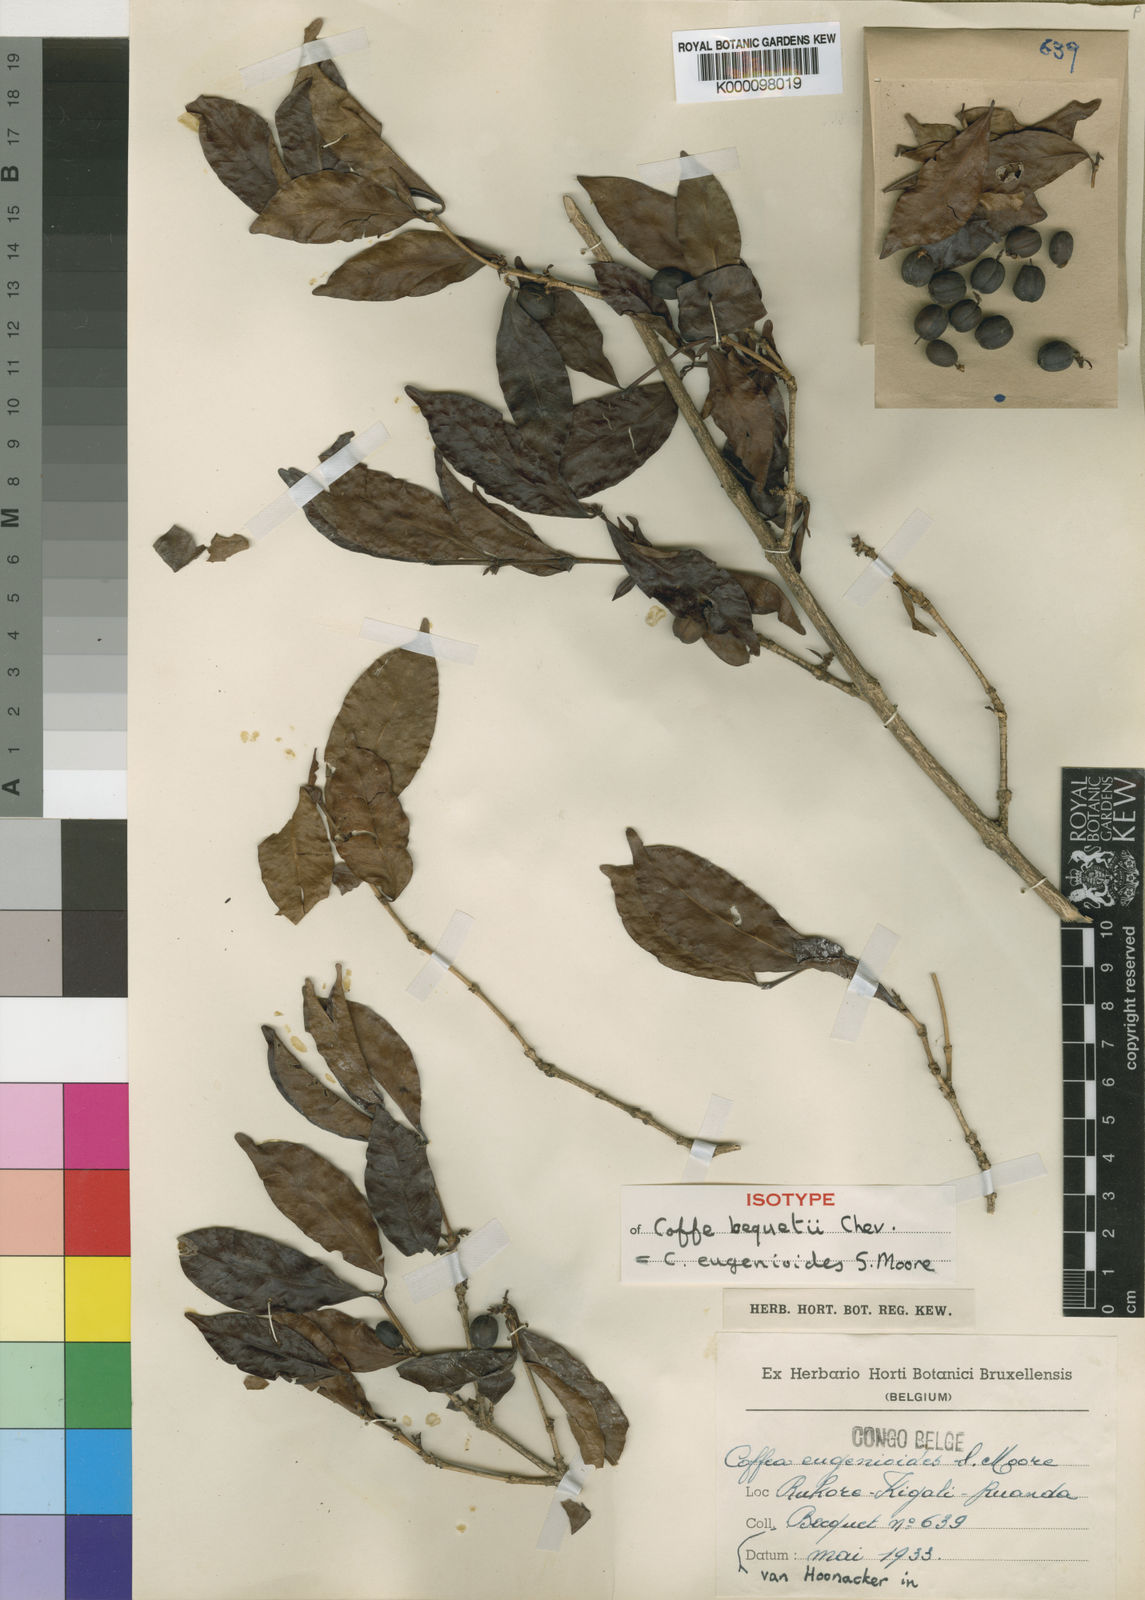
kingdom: Plantae
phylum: Tracheophyta
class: Magnoliopsida
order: Gentianales
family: Rubiaceae
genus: Coffea
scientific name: Coffea eugenioides
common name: Nandi coffee
